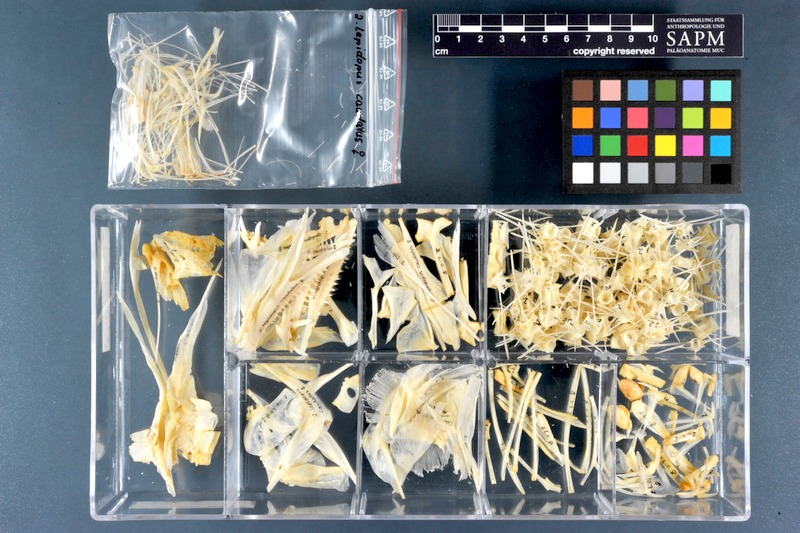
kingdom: Animalia
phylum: Chordata
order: Perciformes
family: Trichiuridae
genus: Lepidopus
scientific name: Lepidopus caudatus
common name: Silver scabbardfish
